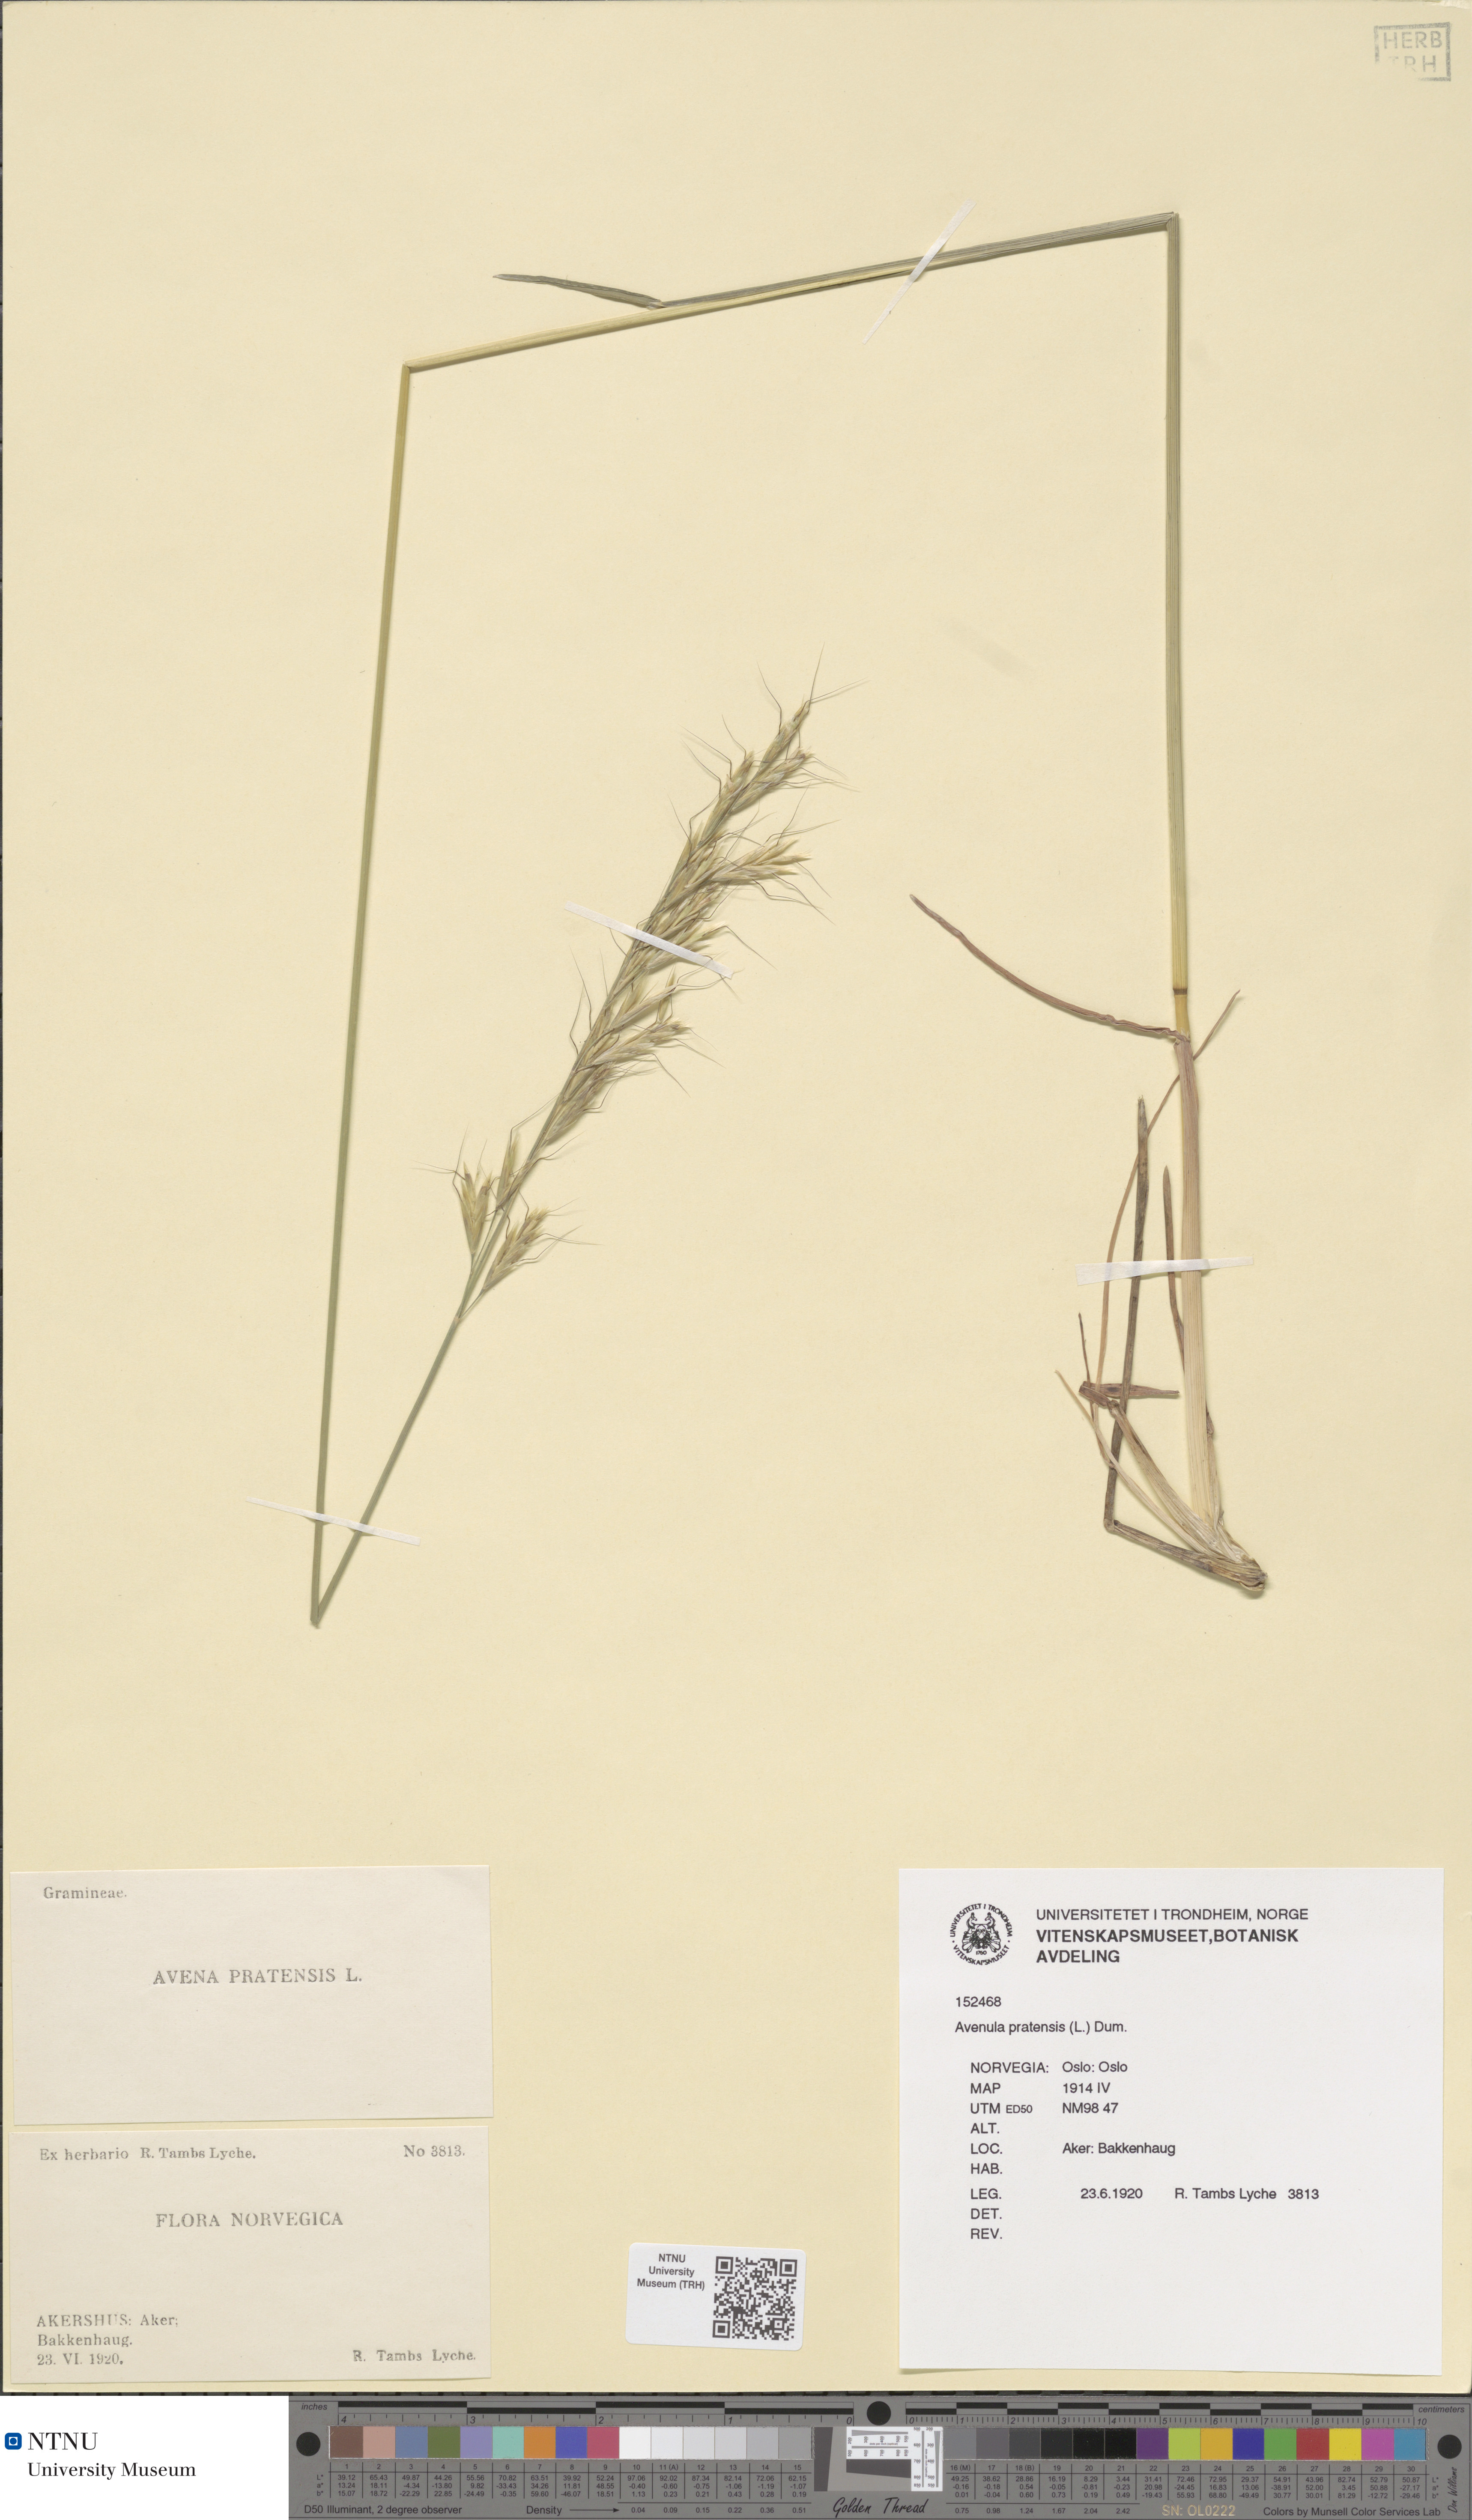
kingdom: Plantae
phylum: Tracheophyta
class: Liliopsida
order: Poales
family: Poaceae
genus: Helictochloa
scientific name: Helictochloa pratensis
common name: Meadow oat grass
